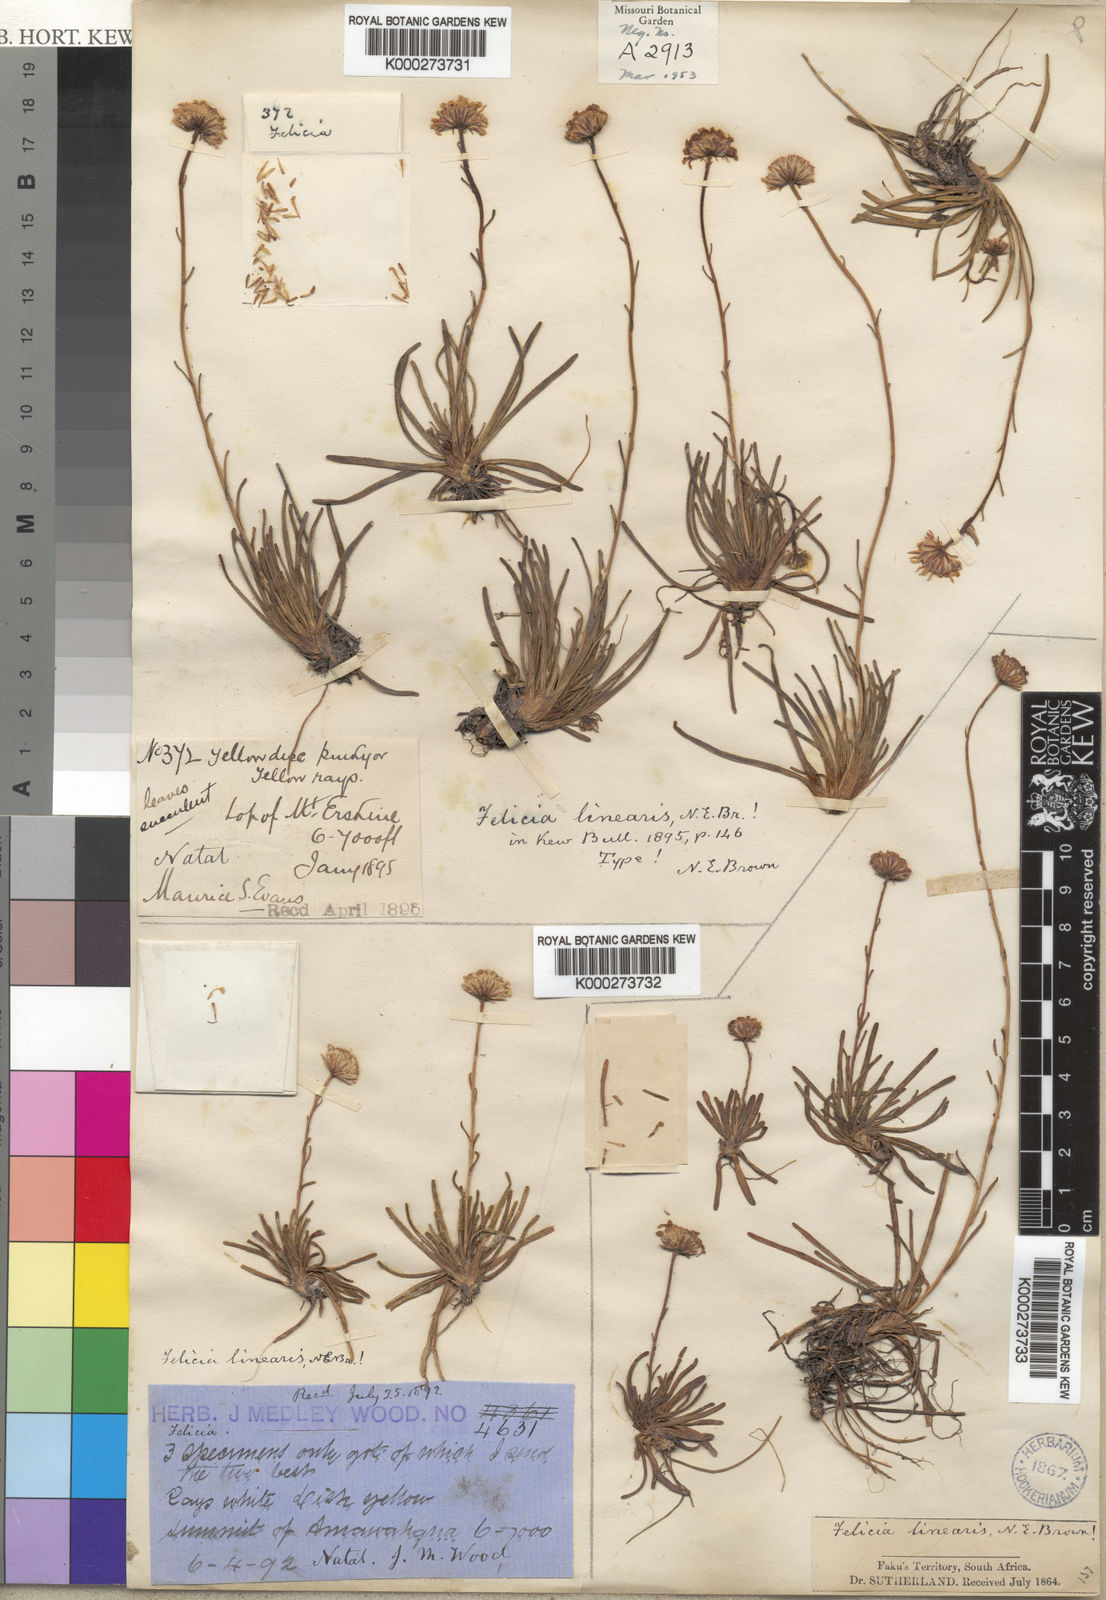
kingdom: Plantae
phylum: Tracheophyta
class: Magnoliopsida
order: Asterales
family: Asteraceae
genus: Felicia
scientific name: Felicia linearis
